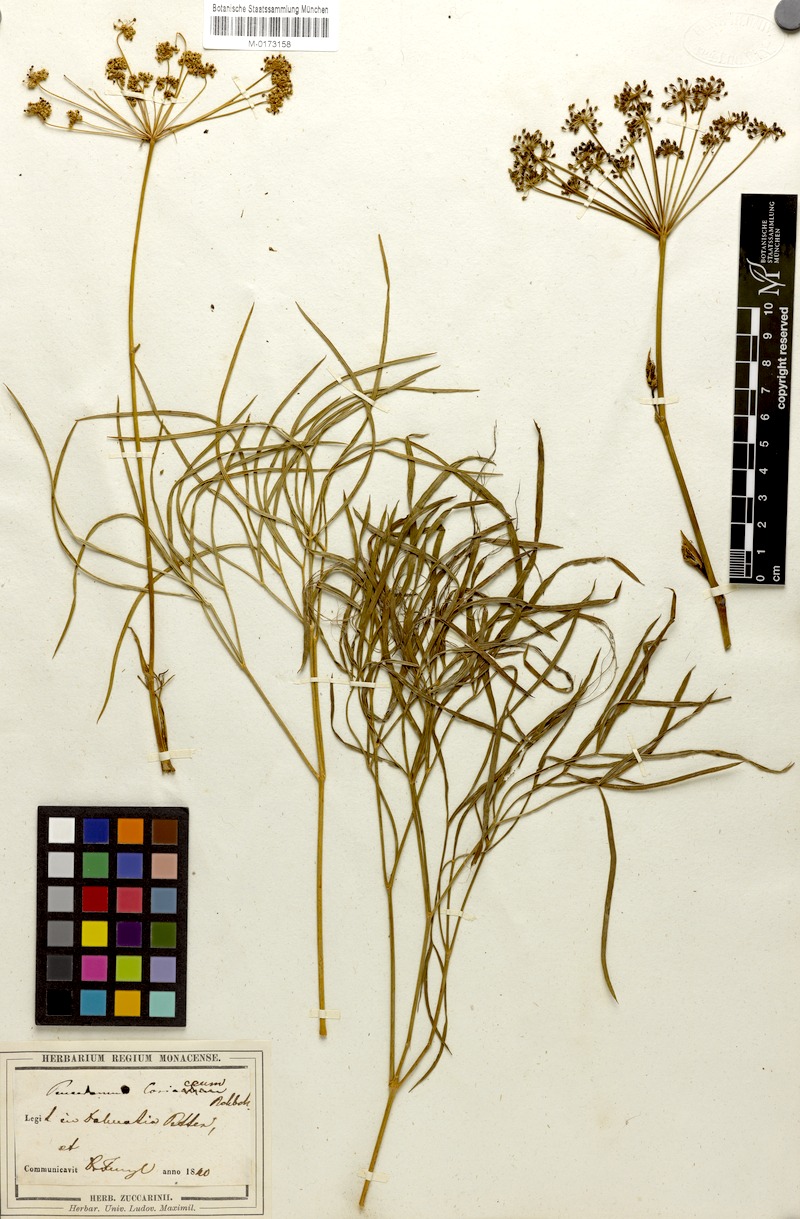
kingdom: Plantae
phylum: Tracheophyta
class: Magnoliopsida
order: Apiales
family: Apiaceae
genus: Peucedanum
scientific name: Peucedanum coriaceum
